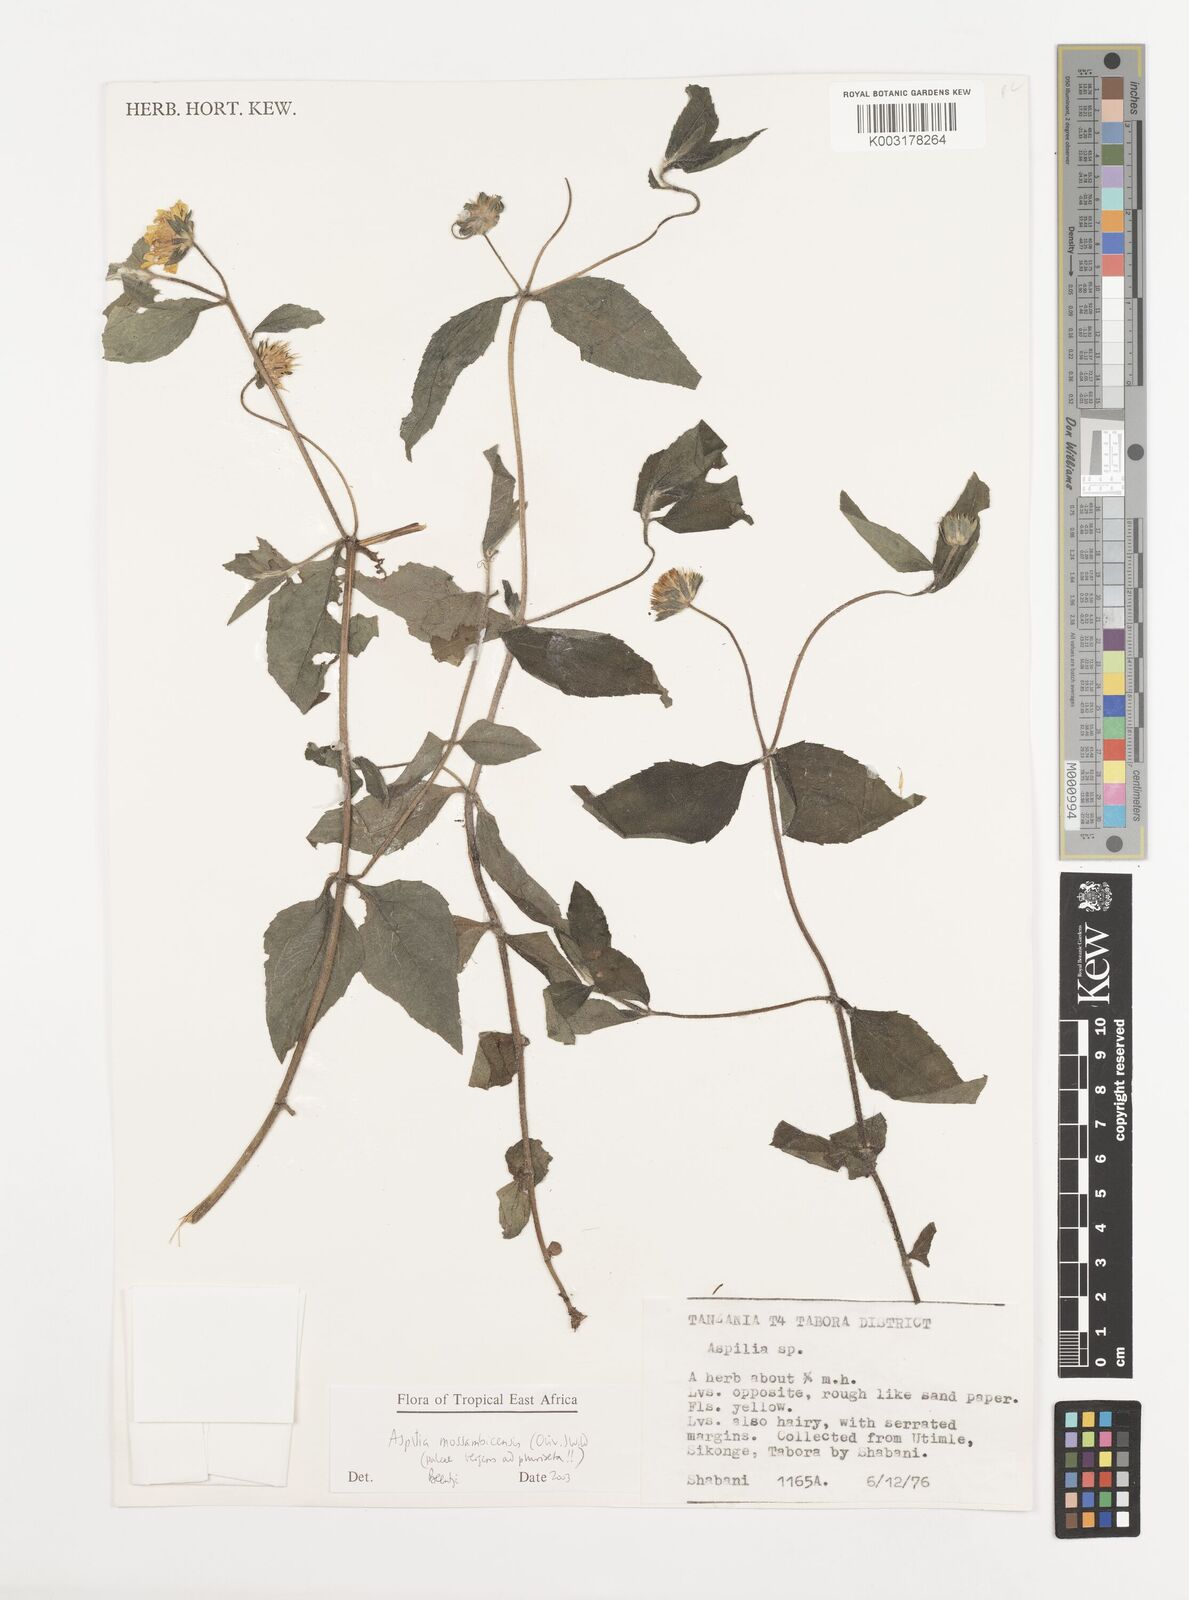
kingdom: Plantae
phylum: Tracheophyta
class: Magnoliopsida
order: Asterales
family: Asteraceae
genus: Aspilia
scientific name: Aspilia mossambicensis
